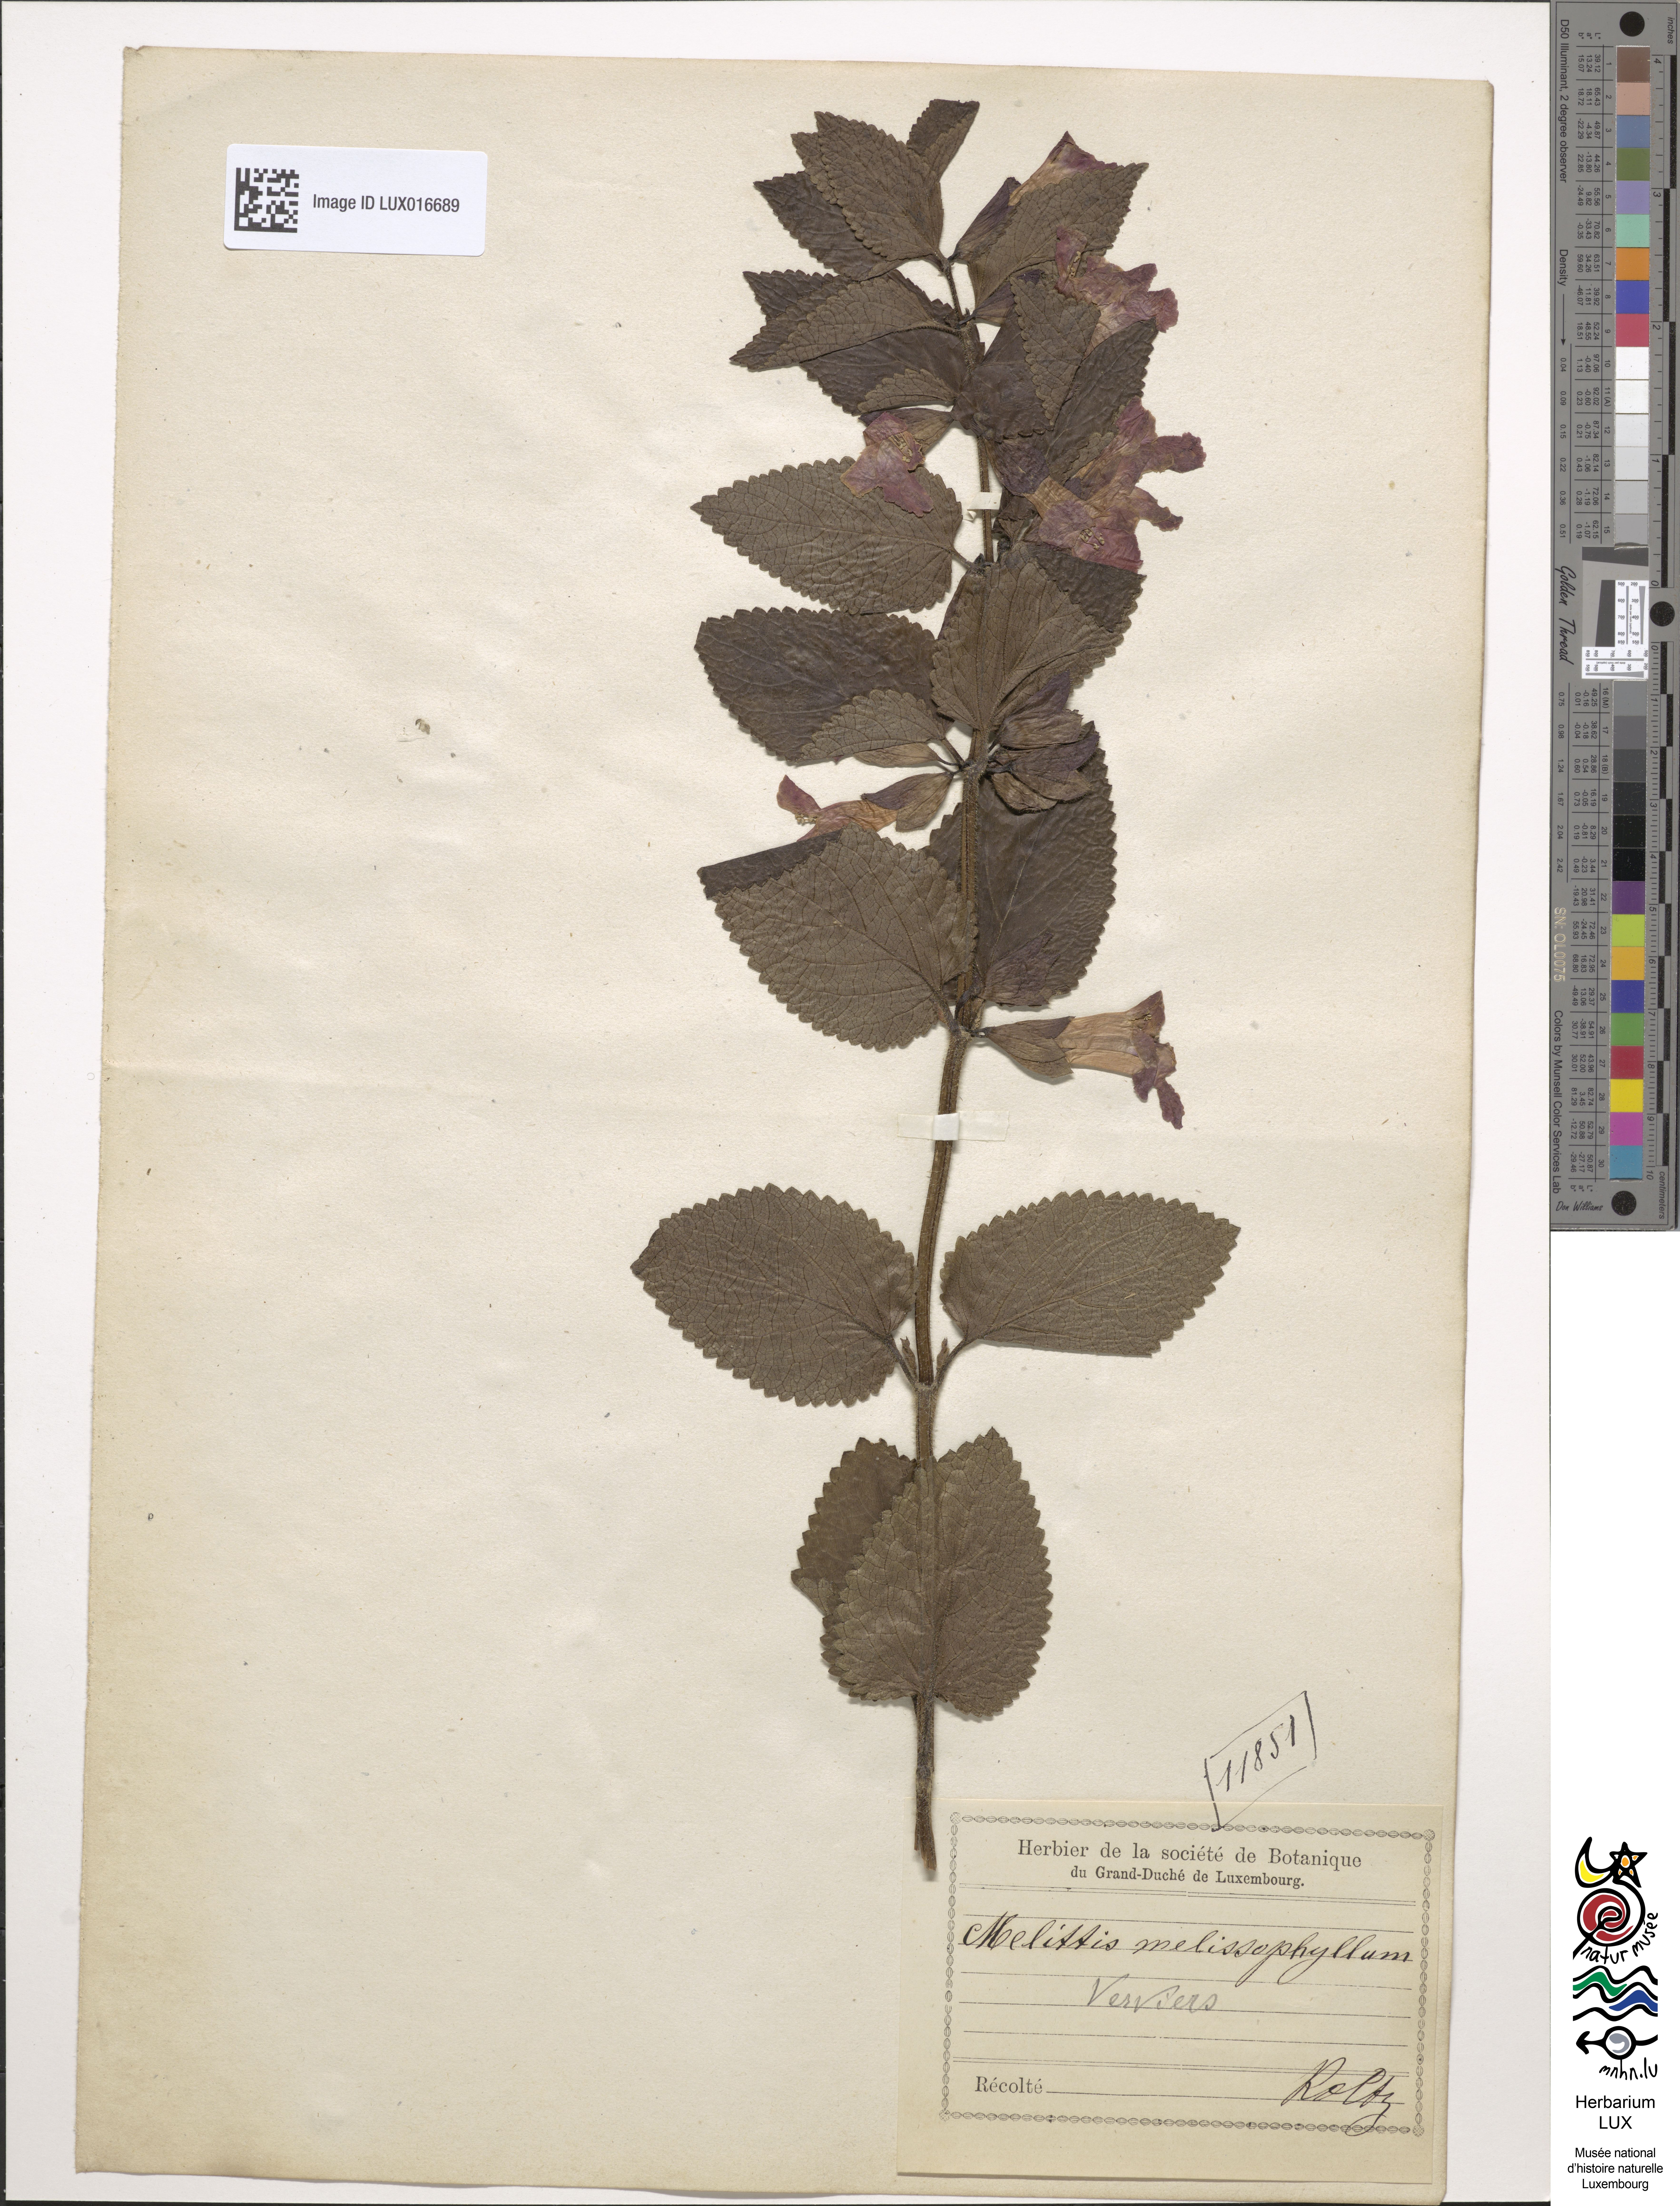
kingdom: Plantae
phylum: Tracheophyta
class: Magnoliopsida
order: Lamiales
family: Lamiaceae
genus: Melittis
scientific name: Melittis melissophyllum
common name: Bastard balm
